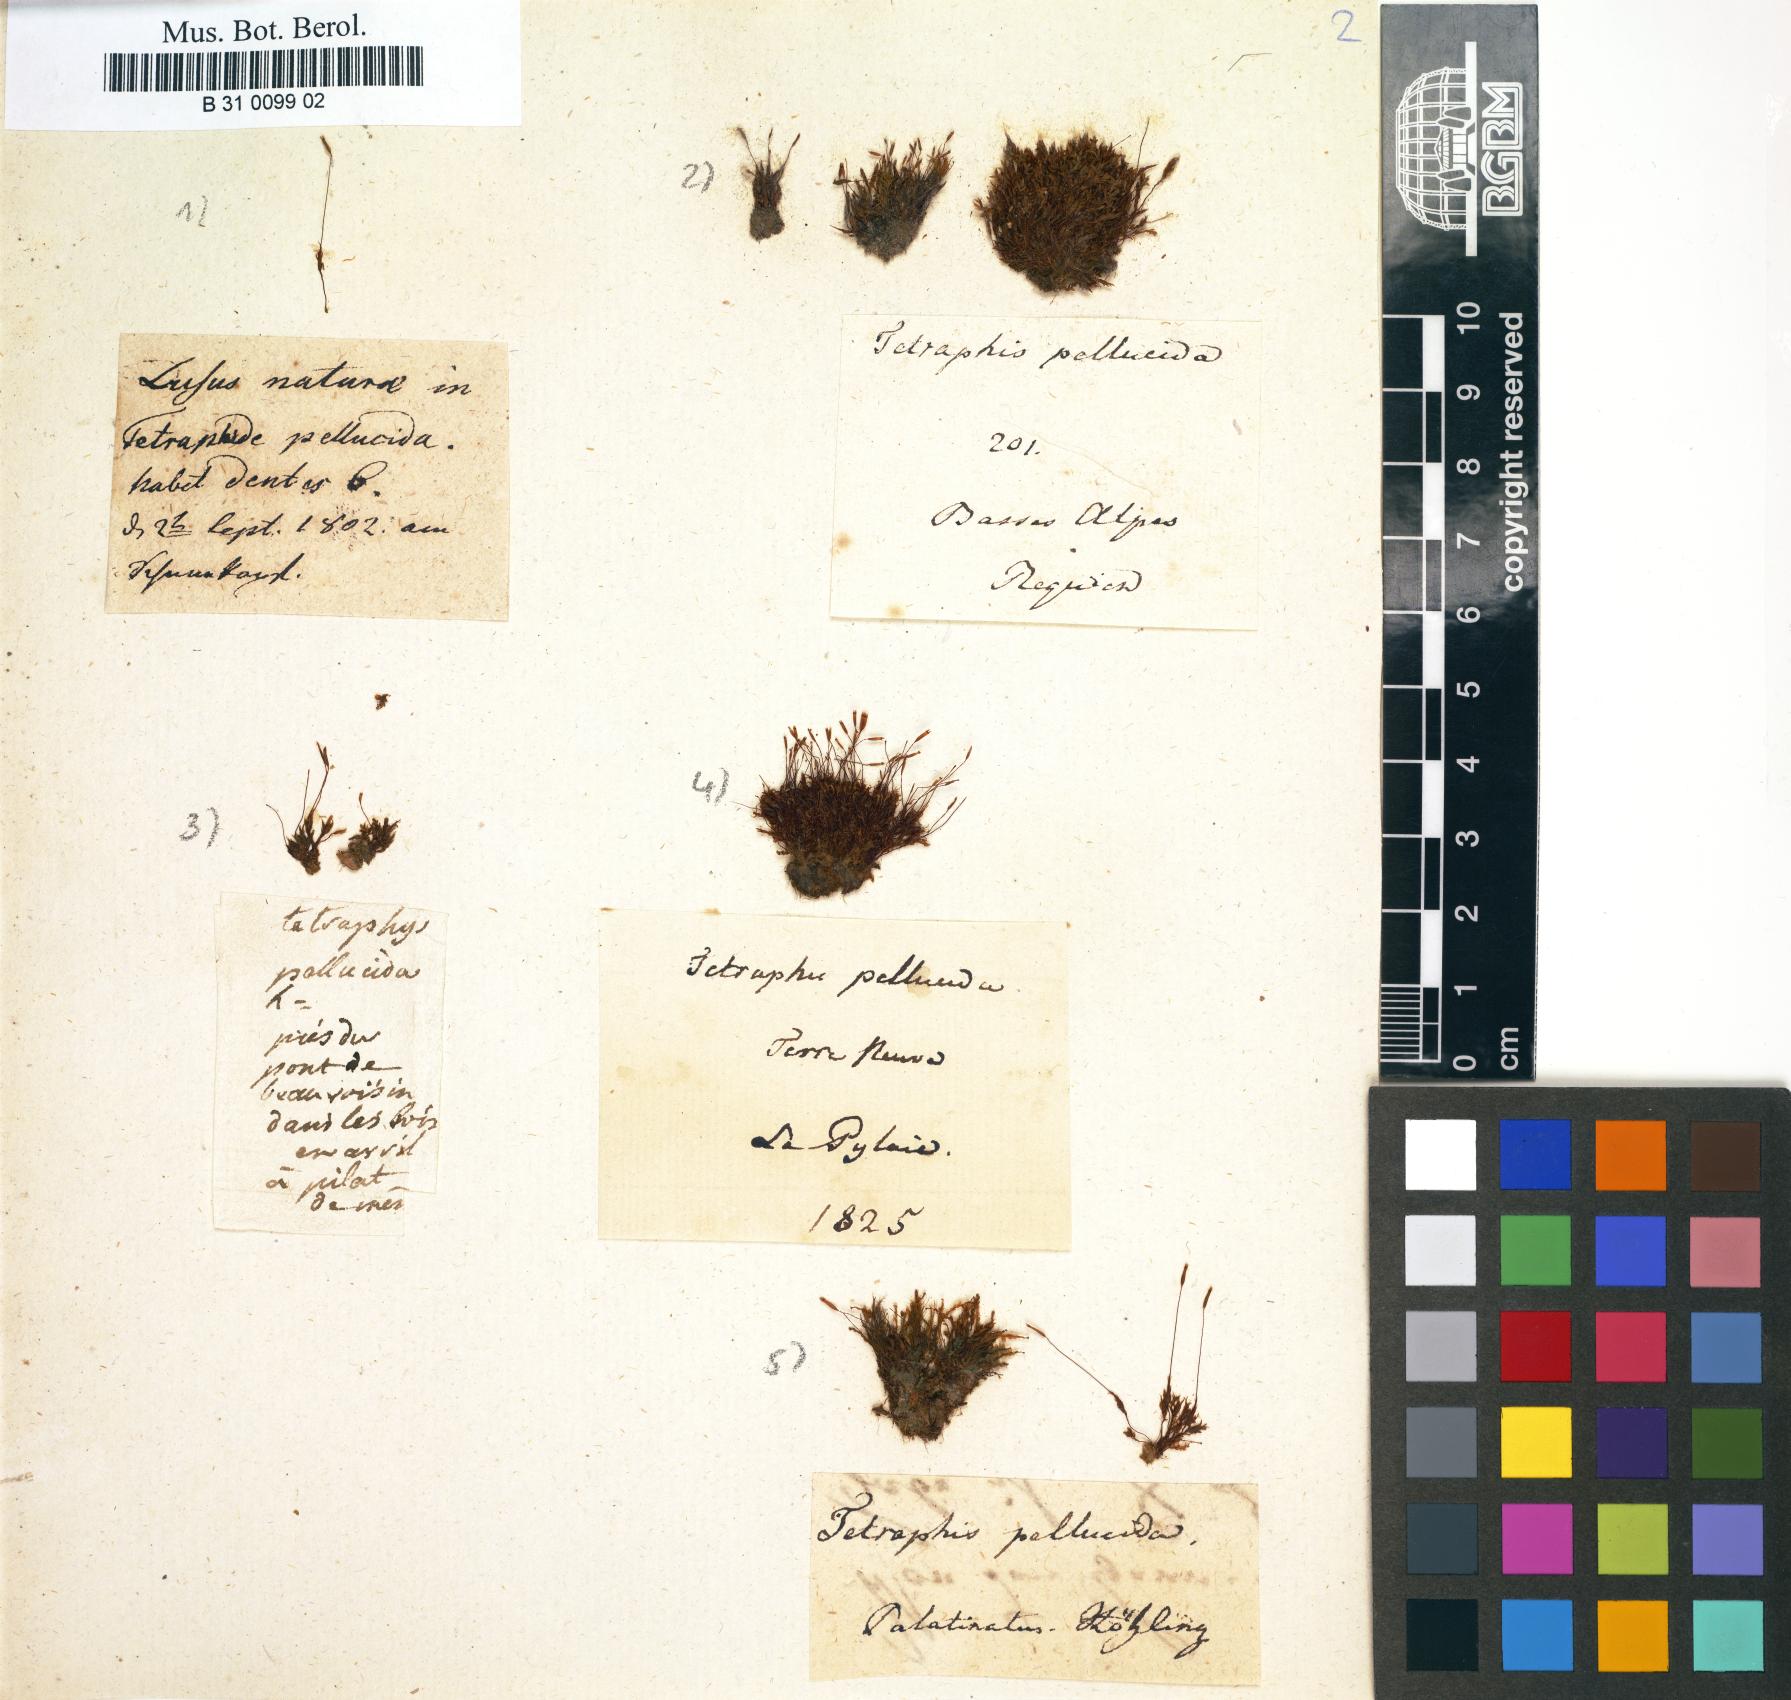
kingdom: Plantae
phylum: Bryophyta
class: Polytrichopsida
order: Tetraphidales
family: Tetraphidaceae
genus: Tetraphis
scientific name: Tetraphis pellucida
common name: Common four-toothed moss
